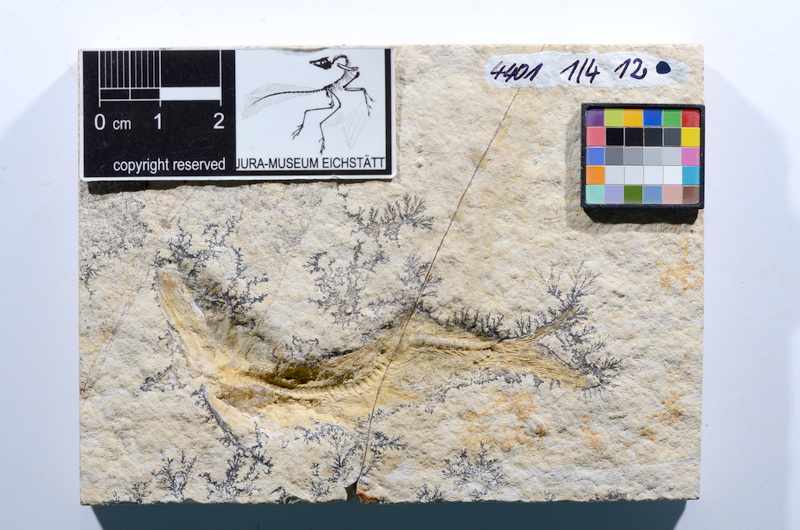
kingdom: Animalia
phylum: Chordata
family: Ascalaboidae
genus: Tharsis
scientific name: Tharsis dubius
